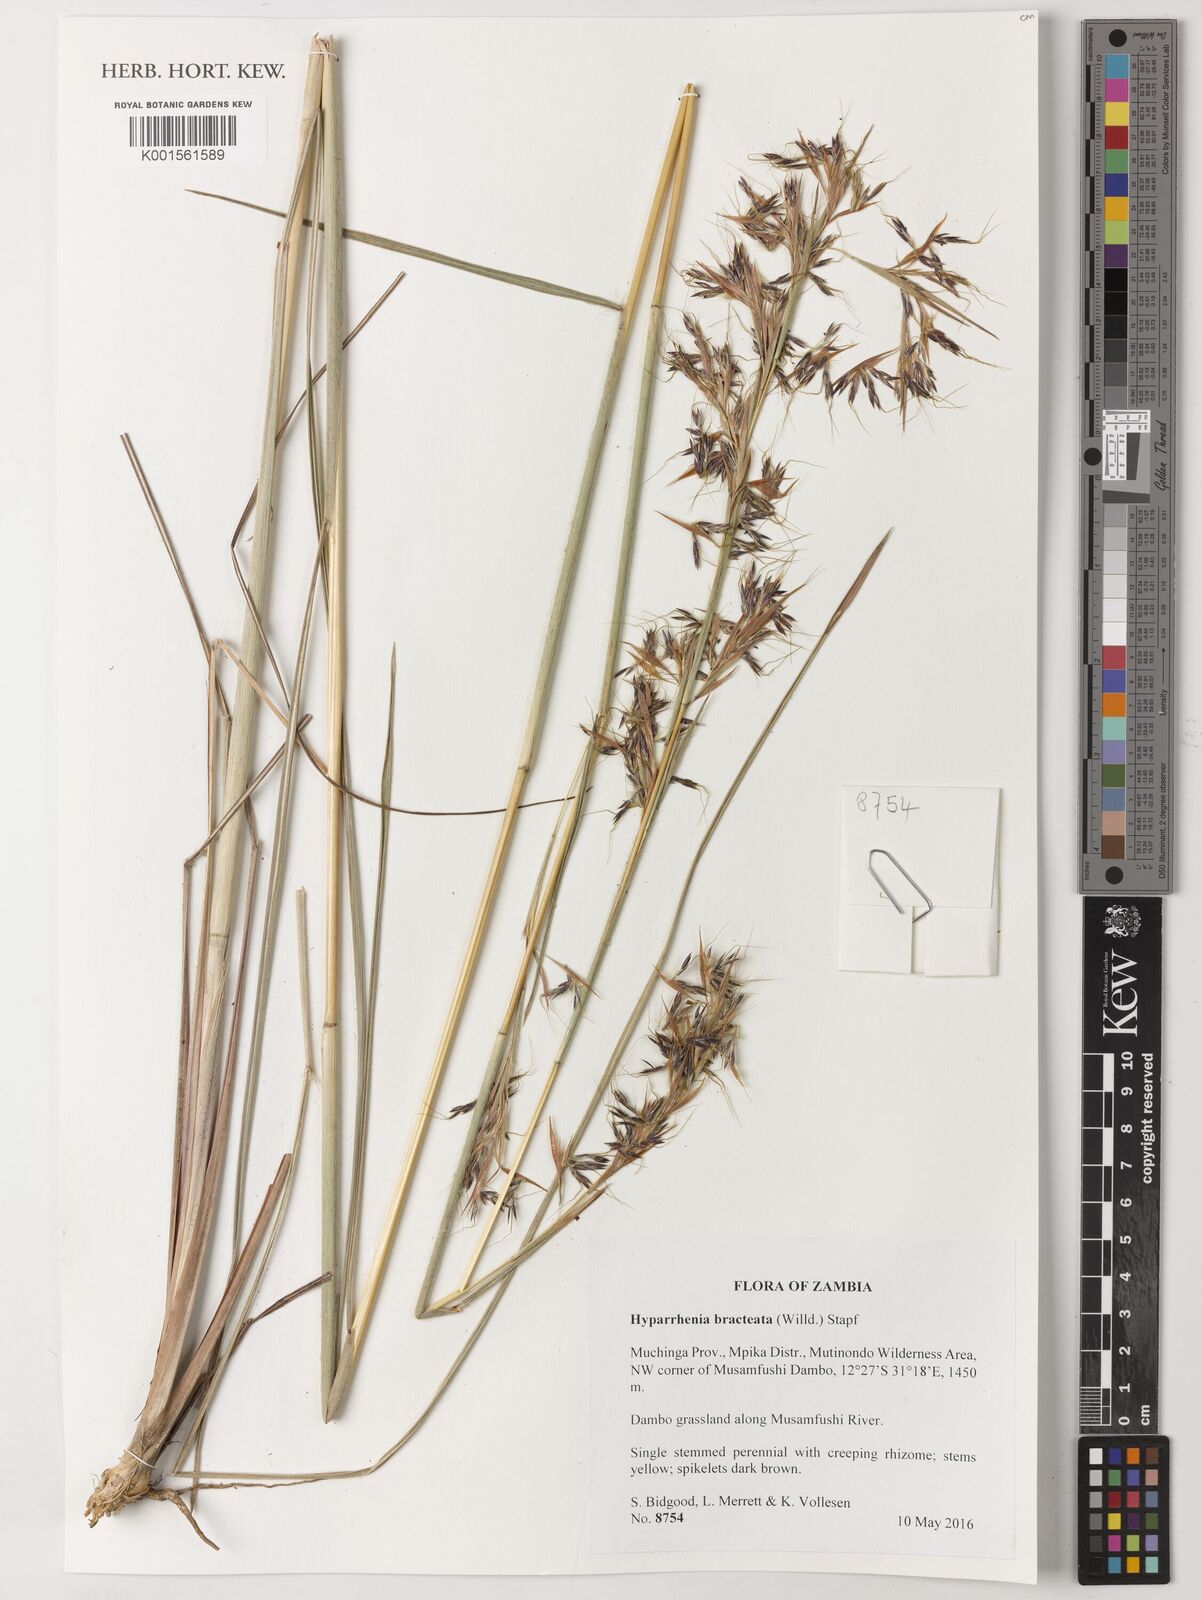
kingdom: Plantae
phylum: Tracheophyta
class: Liliopsida
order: Poales
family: Poaceae
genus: Hyparrhenia
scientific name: Hyparrhenia bracteata
